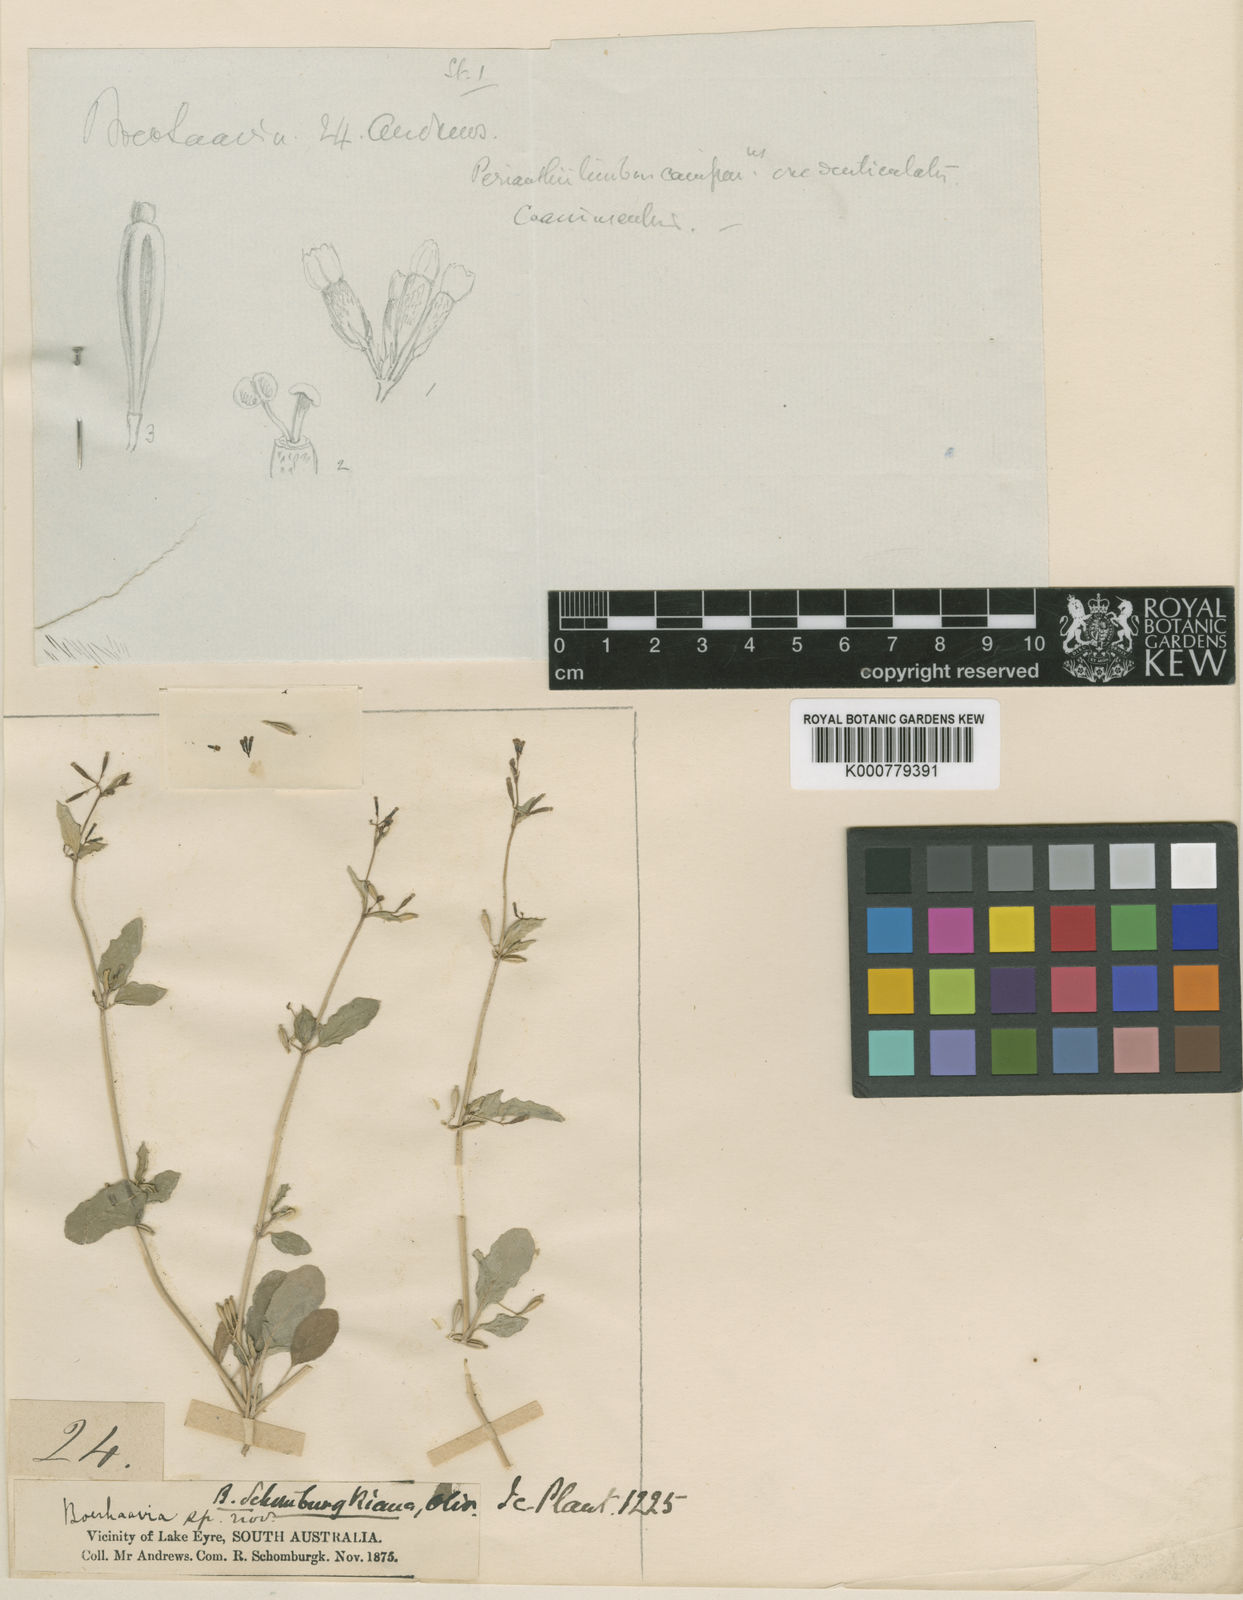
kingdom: Plantae
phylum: Tracheophyta
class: Magnoliopsida
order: Caryophyllales
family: Nyctaginaceae
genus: Boerhavia
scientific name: Boerhavia schomburgkiana
